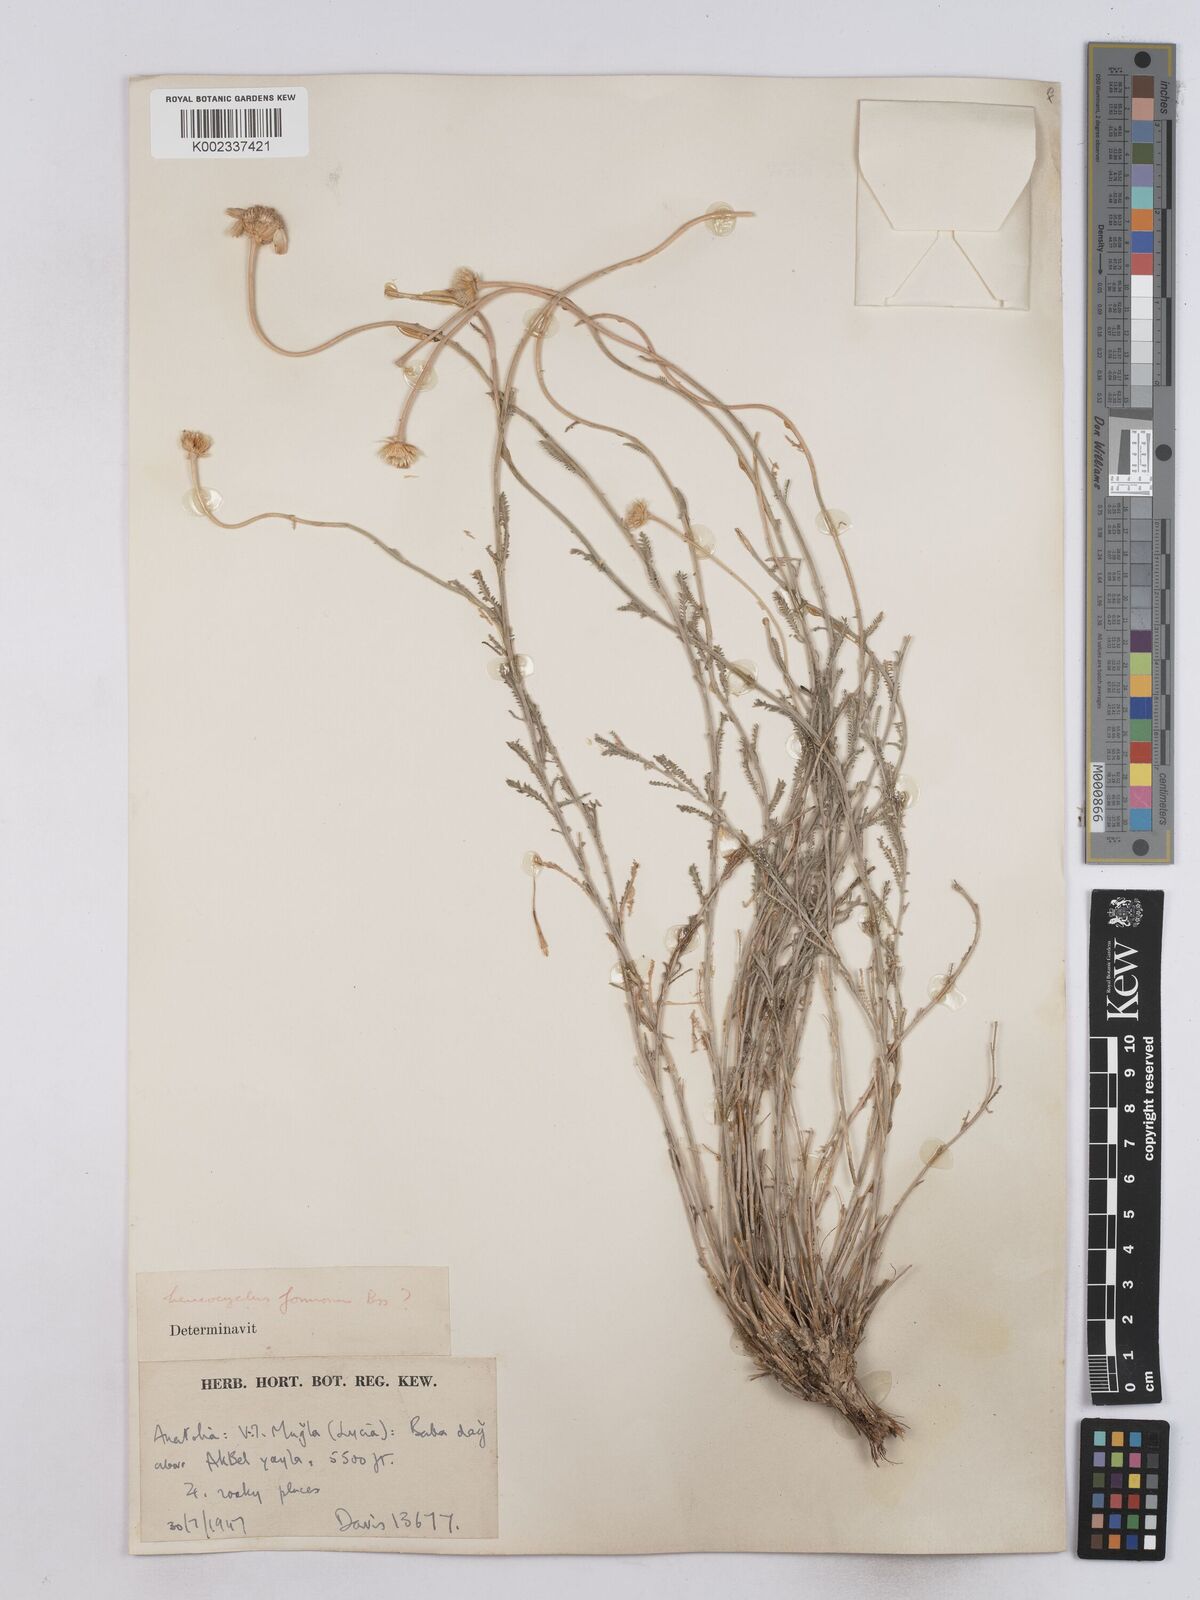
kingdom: Plantae
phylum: Tracheophyta
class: Magnoliopsida
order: Asterales
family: Asteraceae
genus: Achillea
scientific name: Achillea formosa
